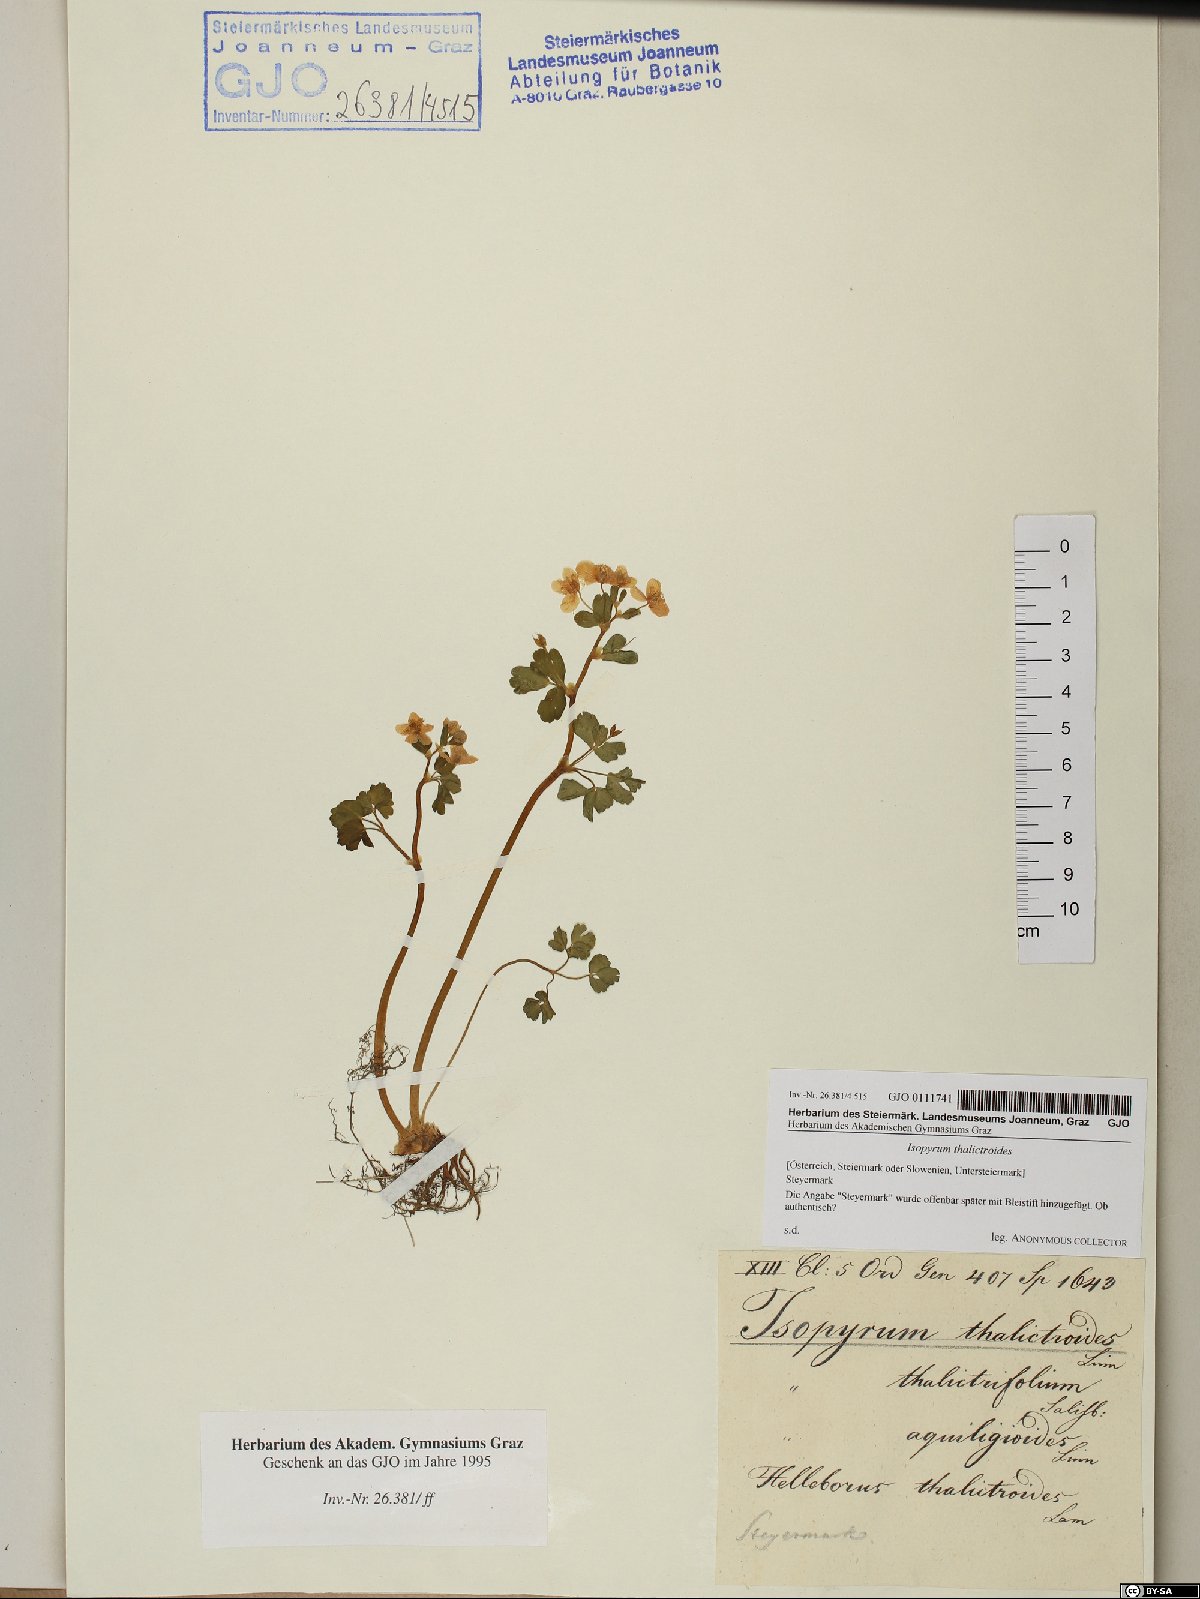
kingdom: Plantae
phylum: Tracheophyta
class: Magnoliopsida
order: Ranunculales
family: Ranunculaceae
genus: Isopyrum
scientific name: Isopyrum thalictroides
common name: Isopyrum
